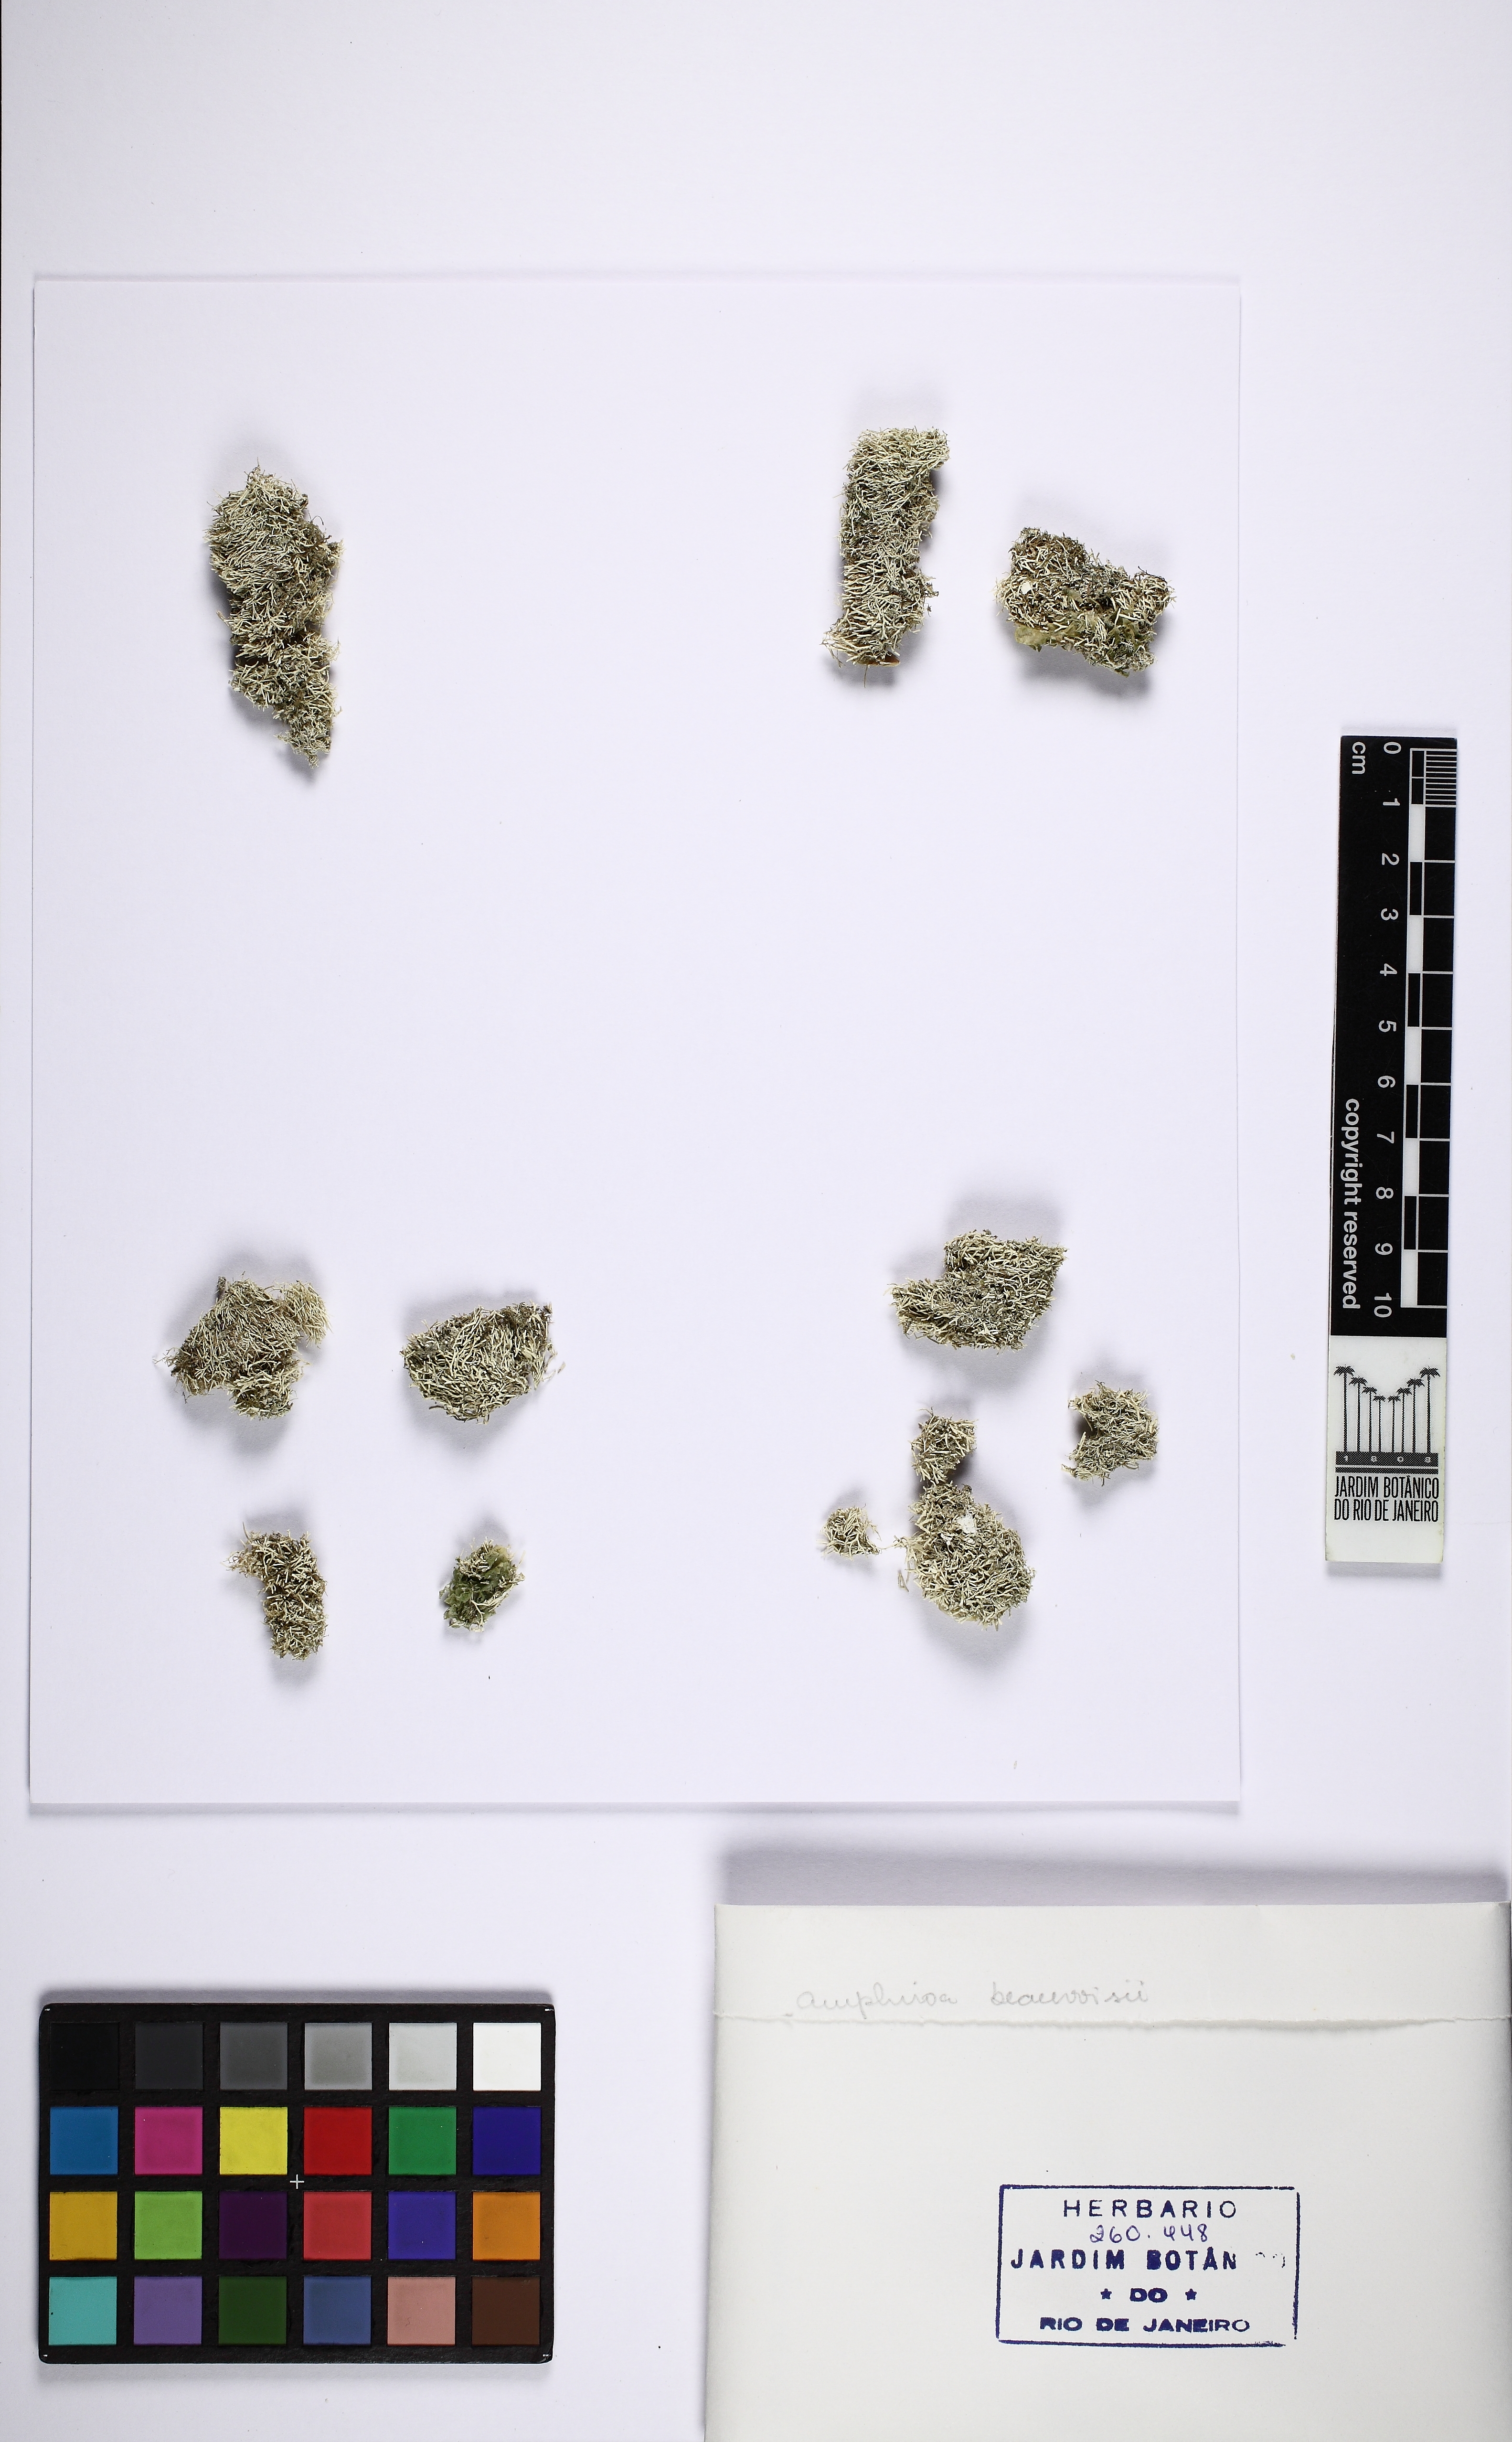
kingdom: Plantae
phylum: Rhodophyta
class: Florideophyceae
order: Corallinales
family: Lithophyllaceae
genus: Amphiroa
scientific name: Amphiroa beauvoisii
